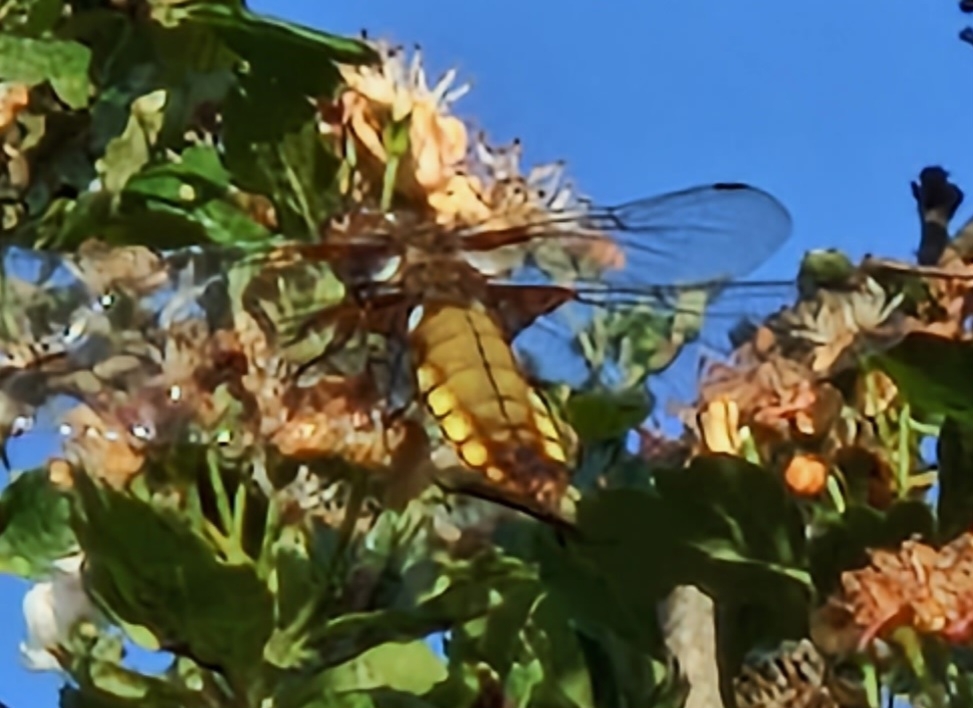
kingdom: Animalia
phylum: Arthropoda
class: Insecta
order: Odonata
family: Libellulidae
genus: Libellula
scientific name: Libellula depressa
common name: Blå libel
